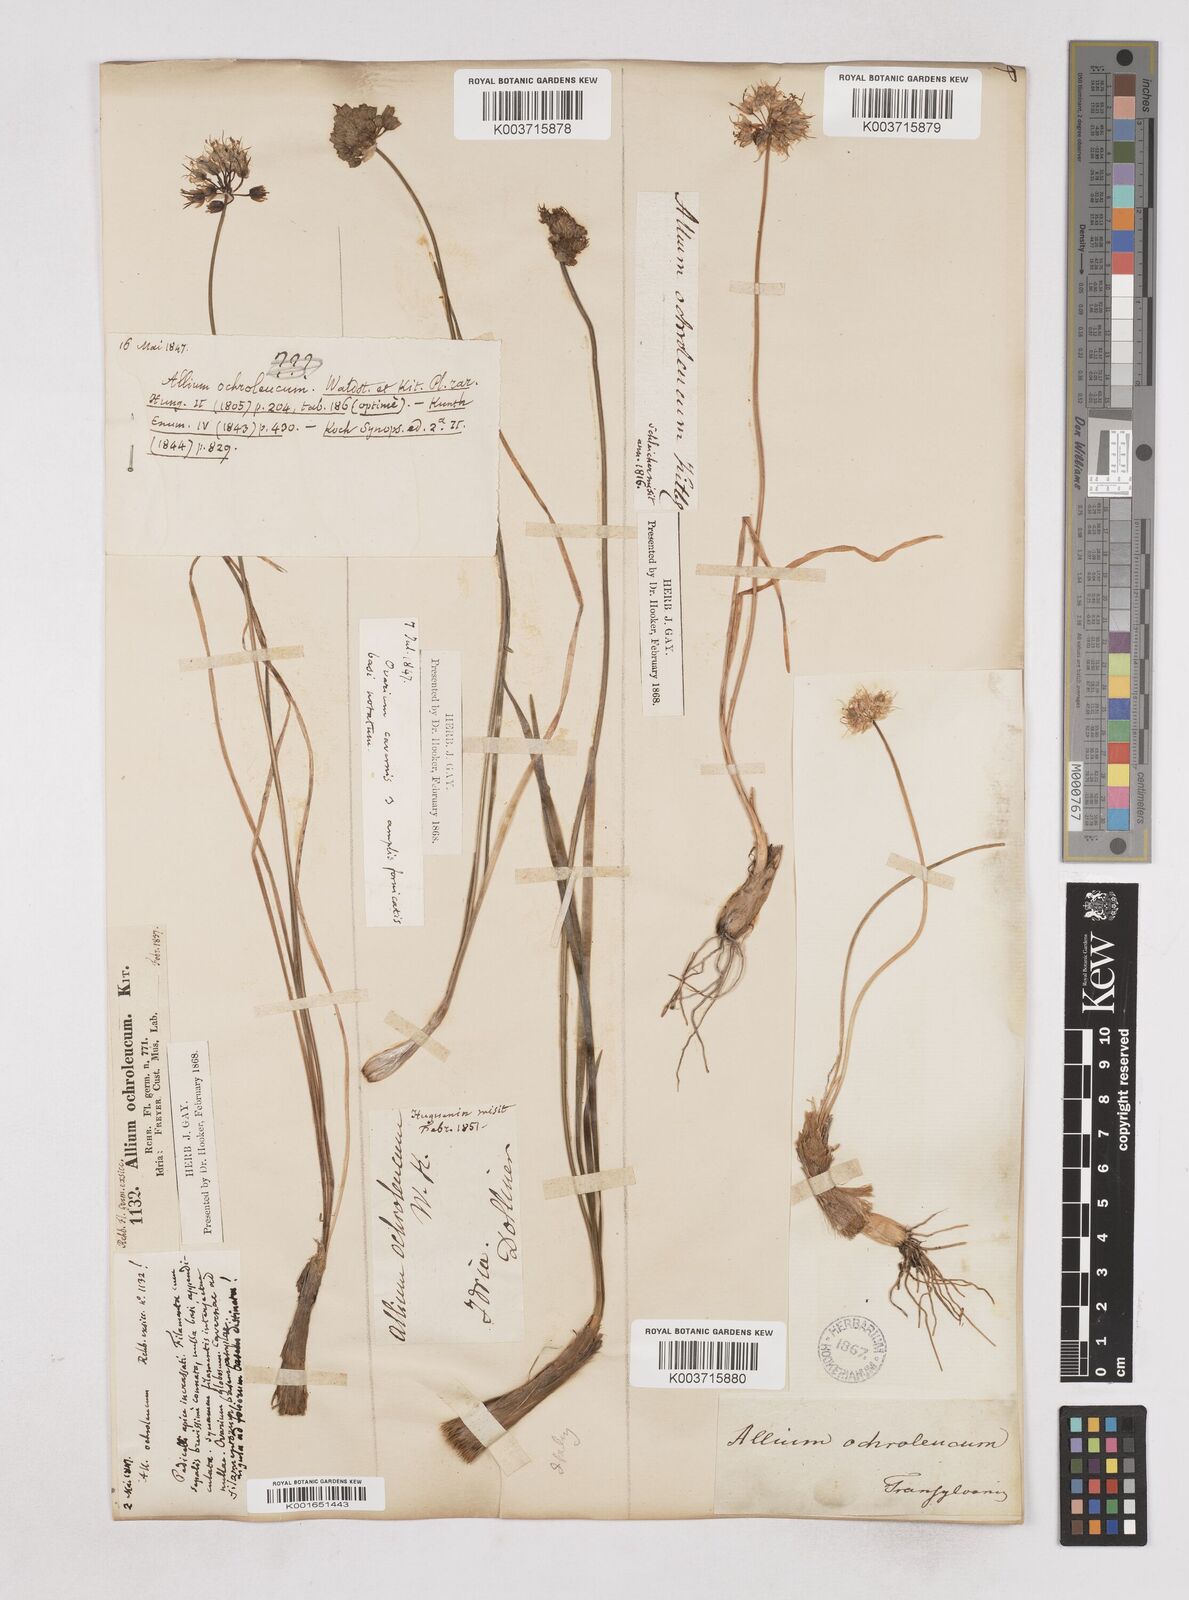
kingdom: Plantae
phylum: Tracheophyta
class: Liliopsida
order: Asparagales
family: Amaryllidaceae
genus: Allium
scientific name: Allium ericetorum
